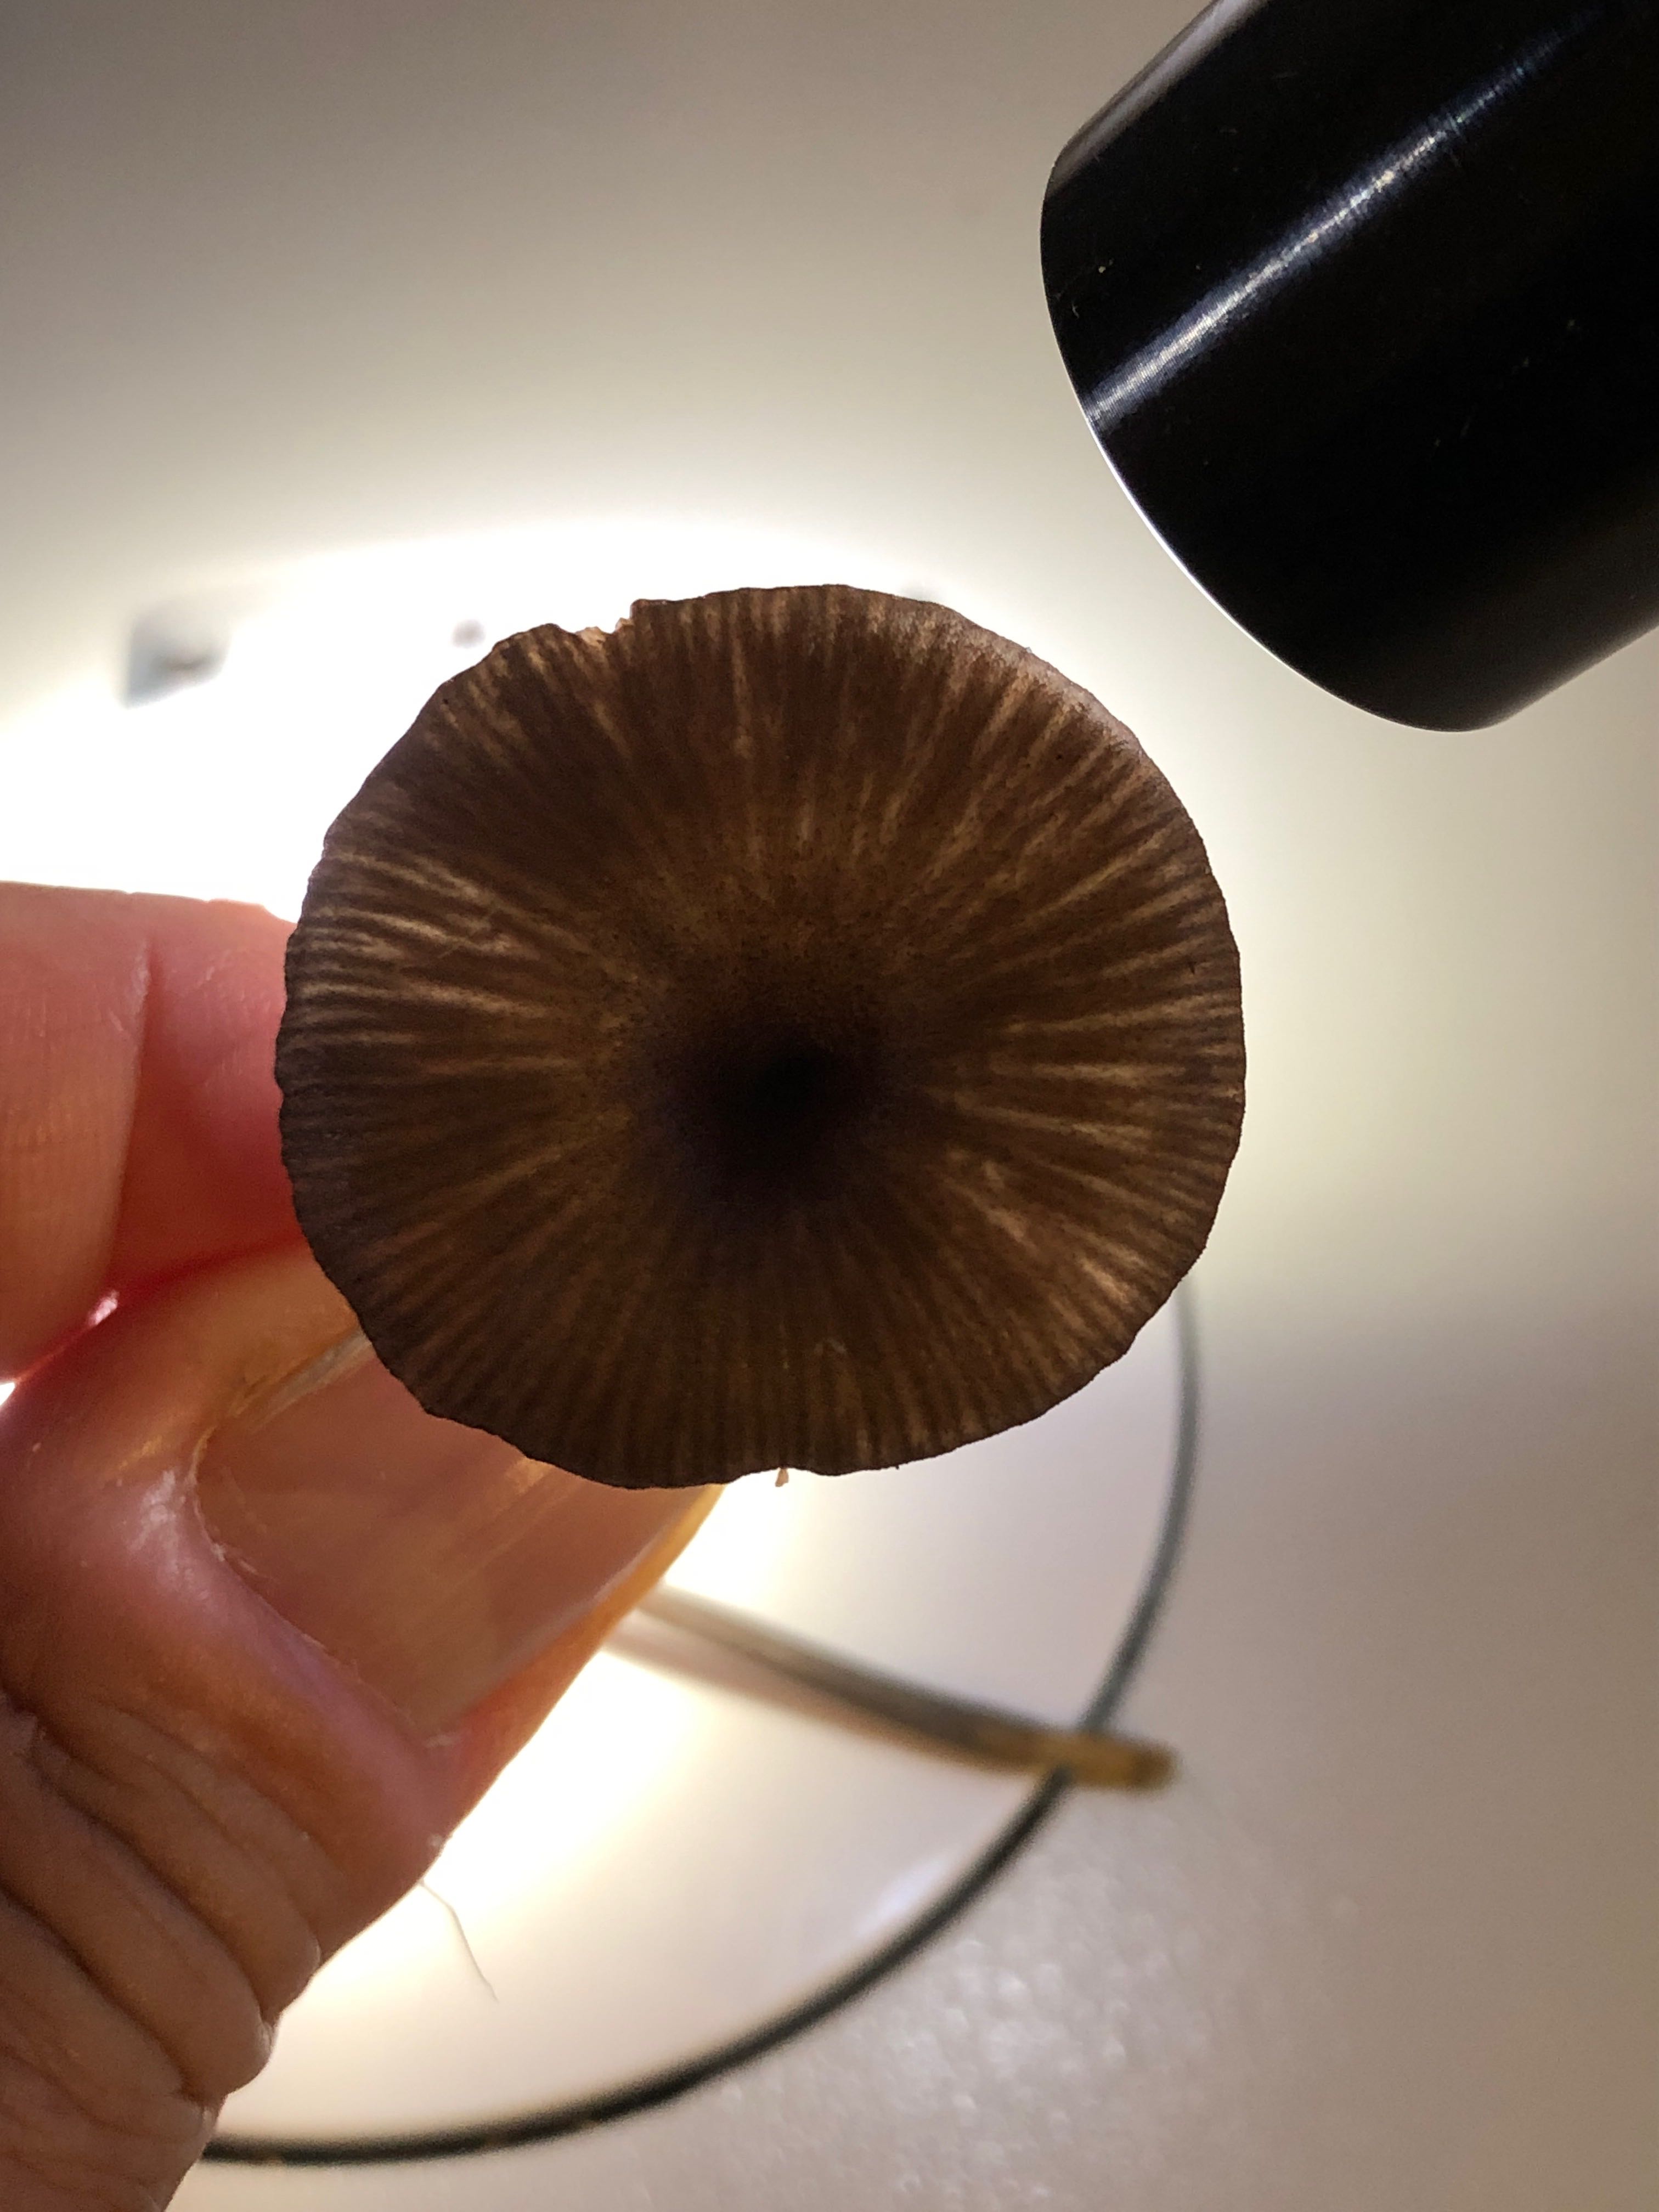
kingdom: Fungi
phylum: Basidiomycota
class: Agaricomycetes
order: Agaricales
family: Entolomataceae
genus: Entoloma
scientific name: Entoloma caesiocinctum
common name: Blue-girdled pinkgill
